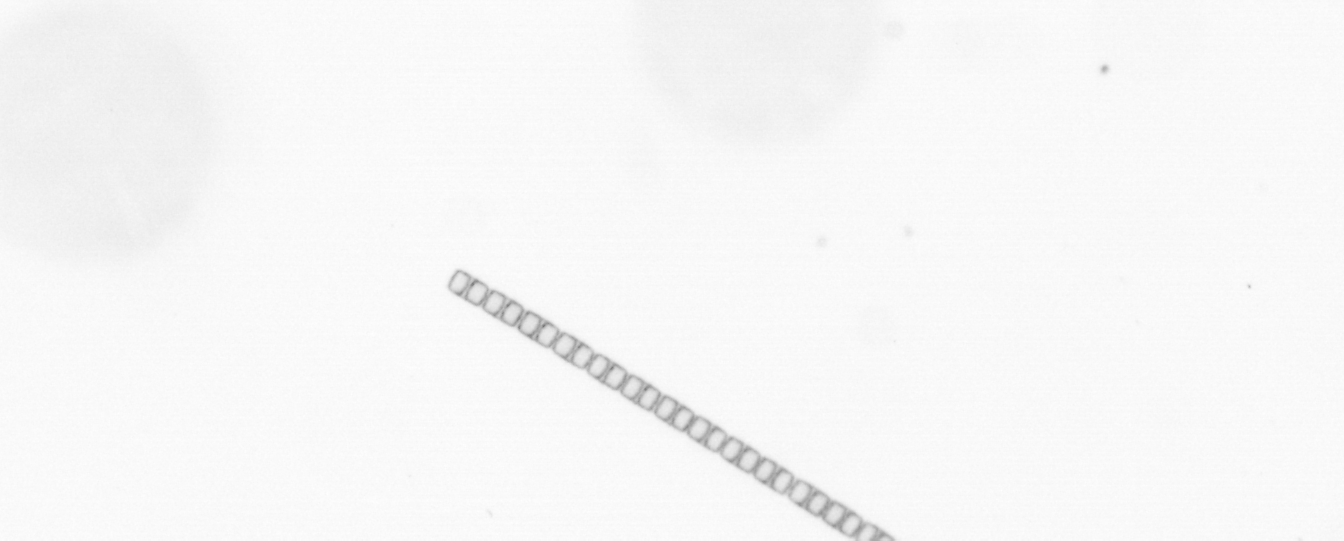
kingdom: Chromista
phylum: Ochrophyta
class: Bacillariophyceae
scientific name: Bacillariophyceae
